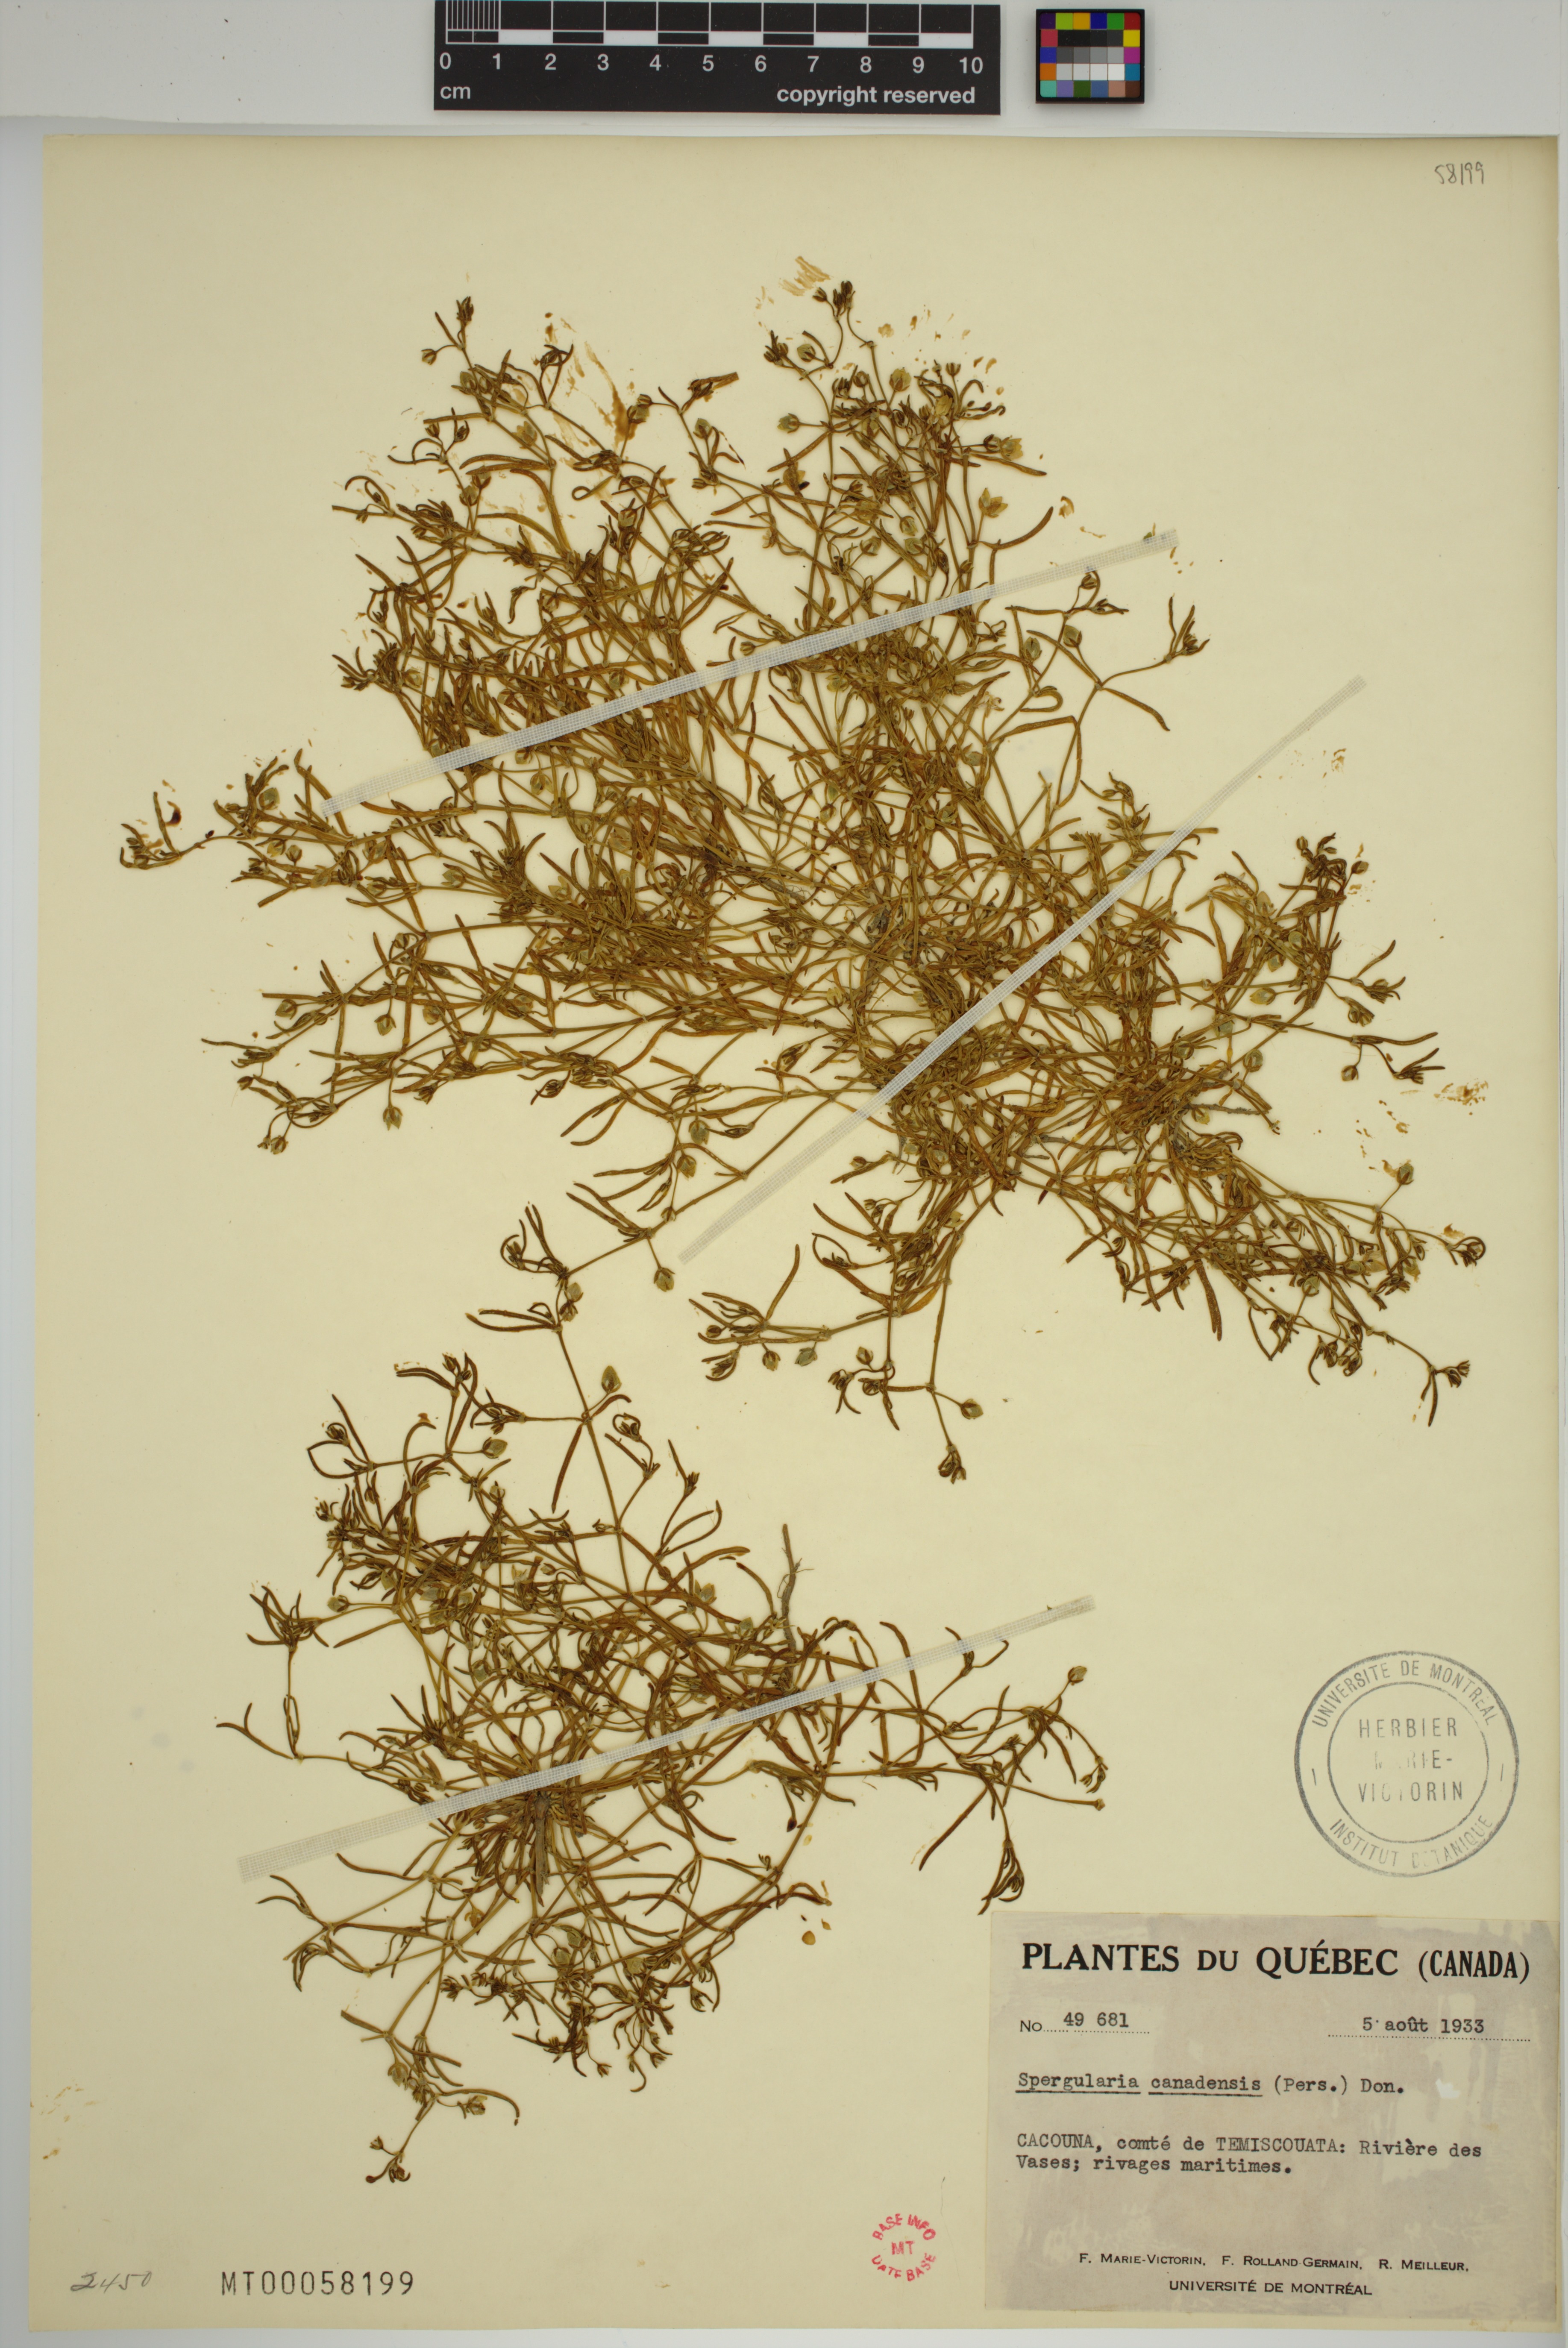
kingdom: Plantae
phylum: Tracheophyta
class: Magnoliopsida
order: Caryophyllales
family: Caryophyllaceae
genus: Spergularia
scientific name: Spergularia canadensis
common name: Canada sand-spurrey
